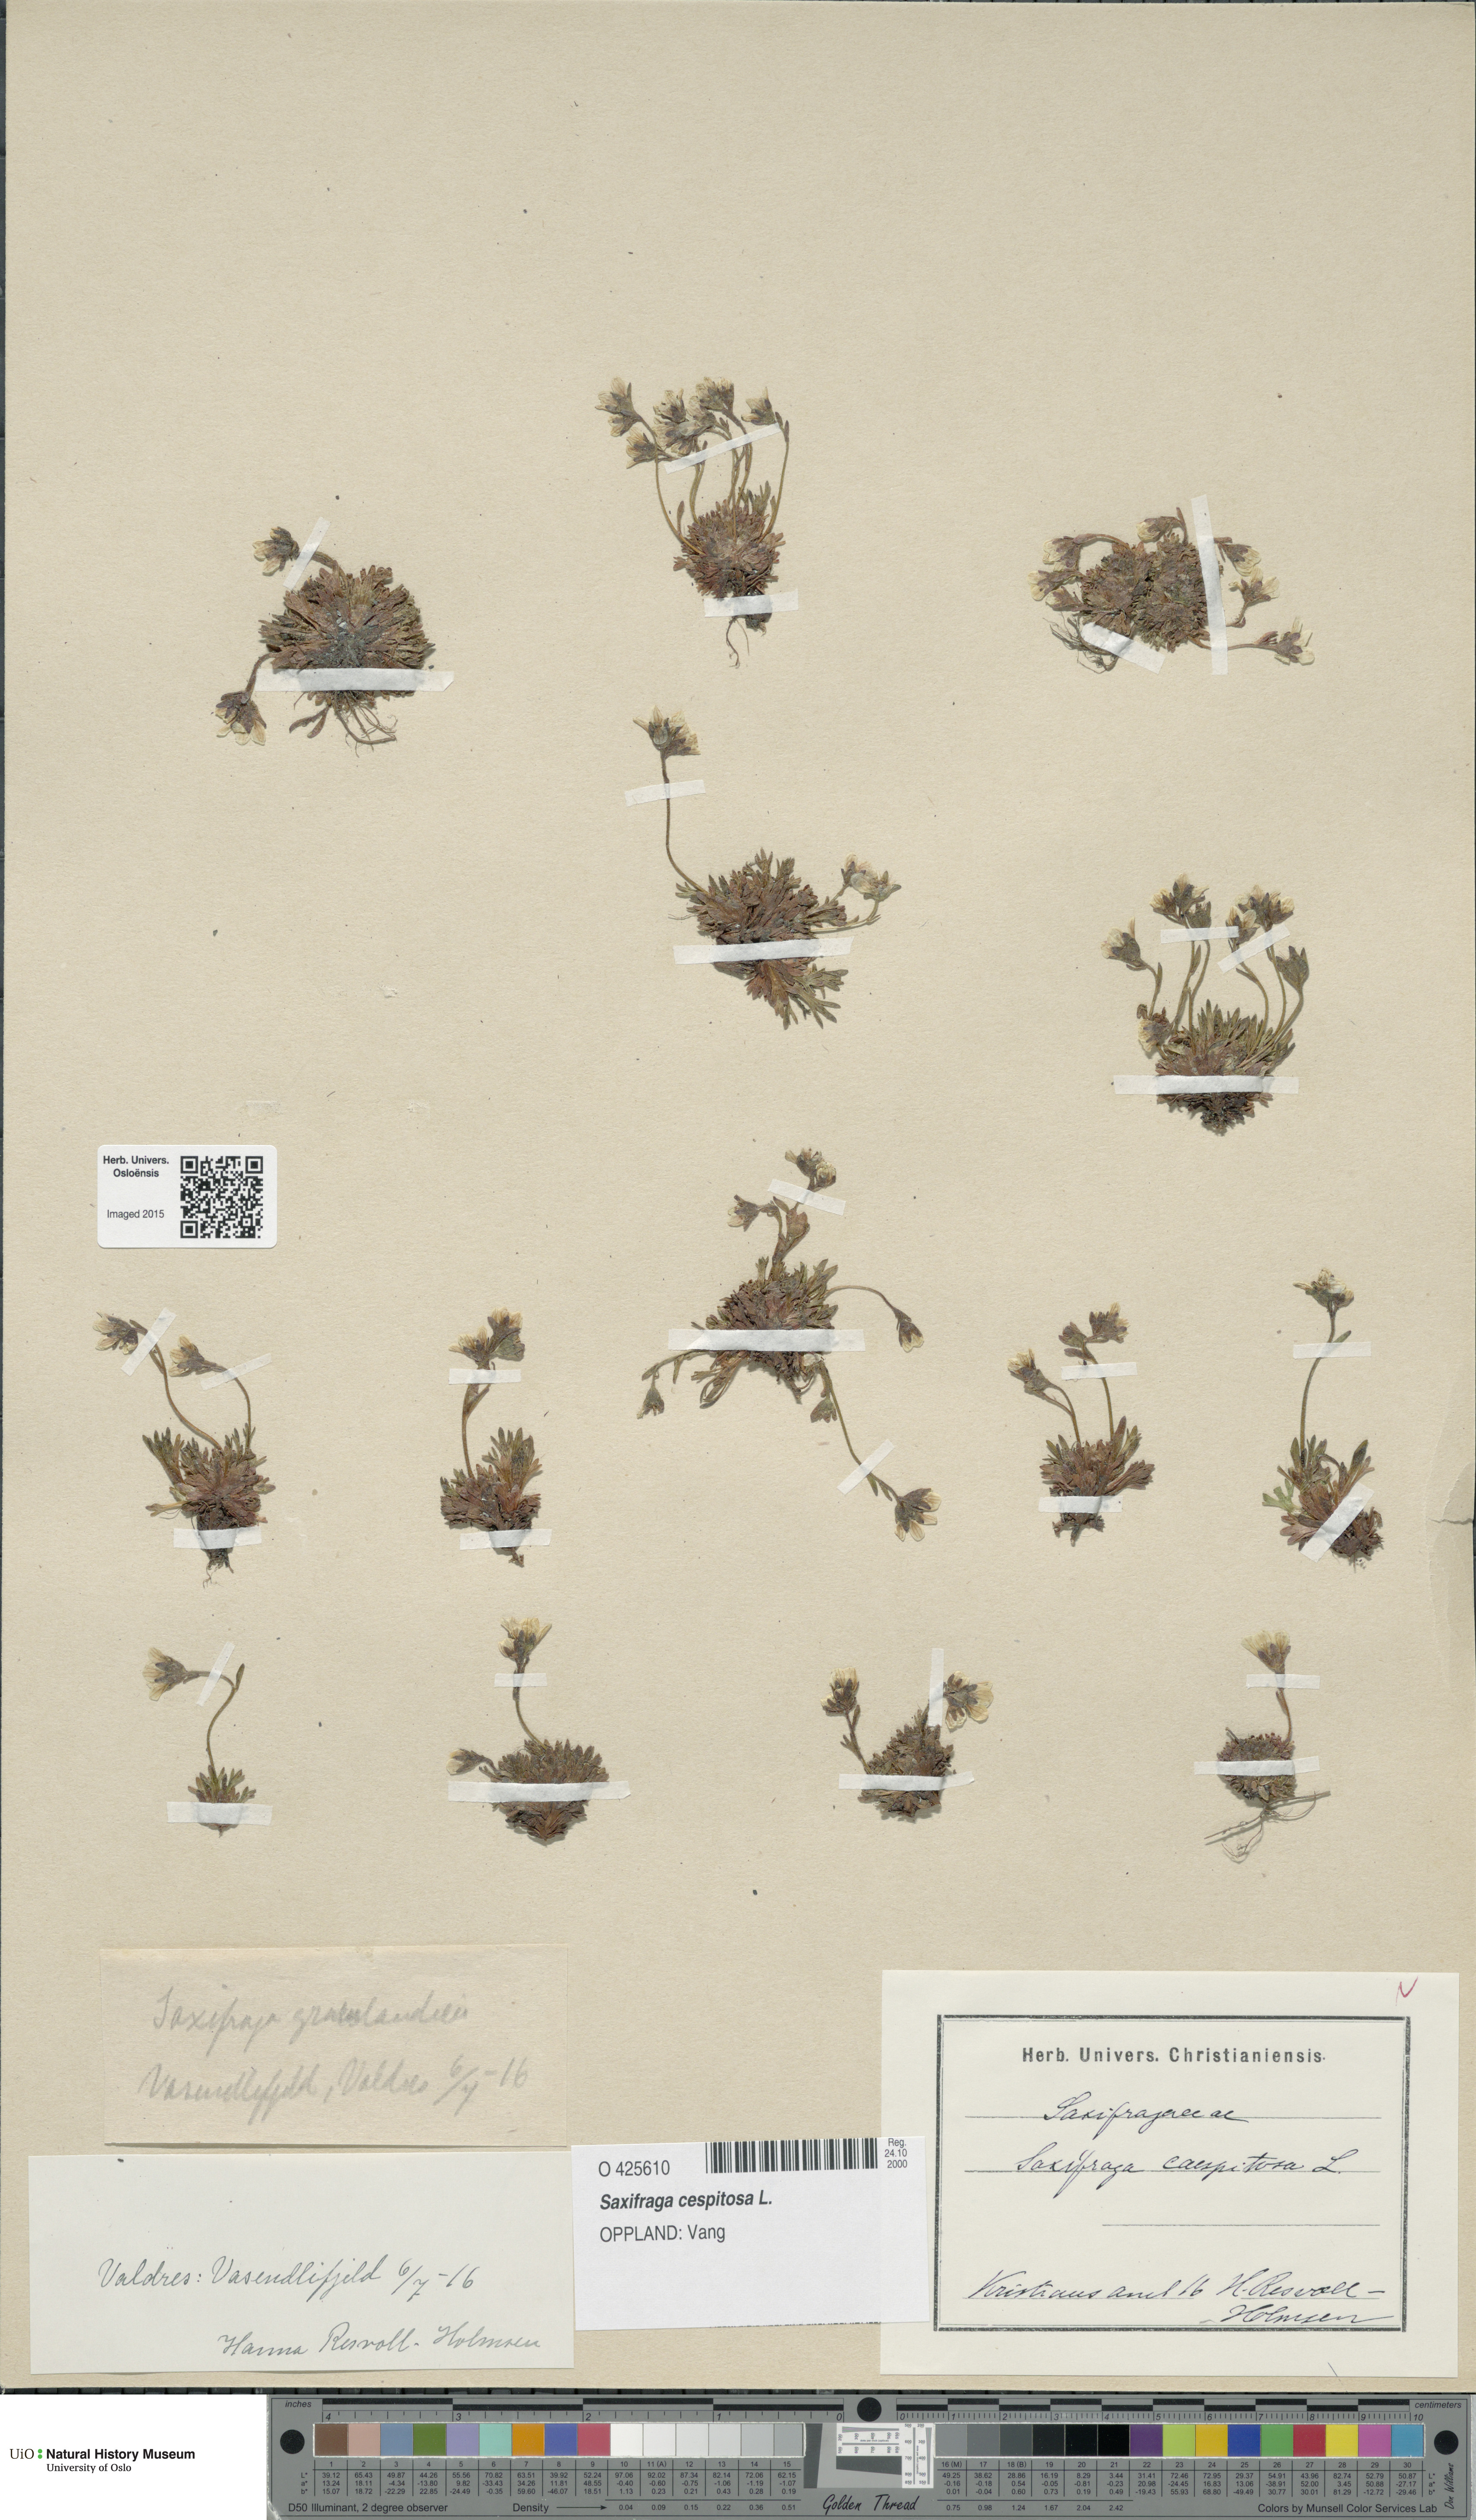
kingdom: Plantae
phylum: Tracheophyta
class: Magnoliopsida
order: Saxifragales
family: Saxifragaceae
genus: Saxifraga
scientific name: Saxifraga cespitosa
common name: Tufted saxifrage
